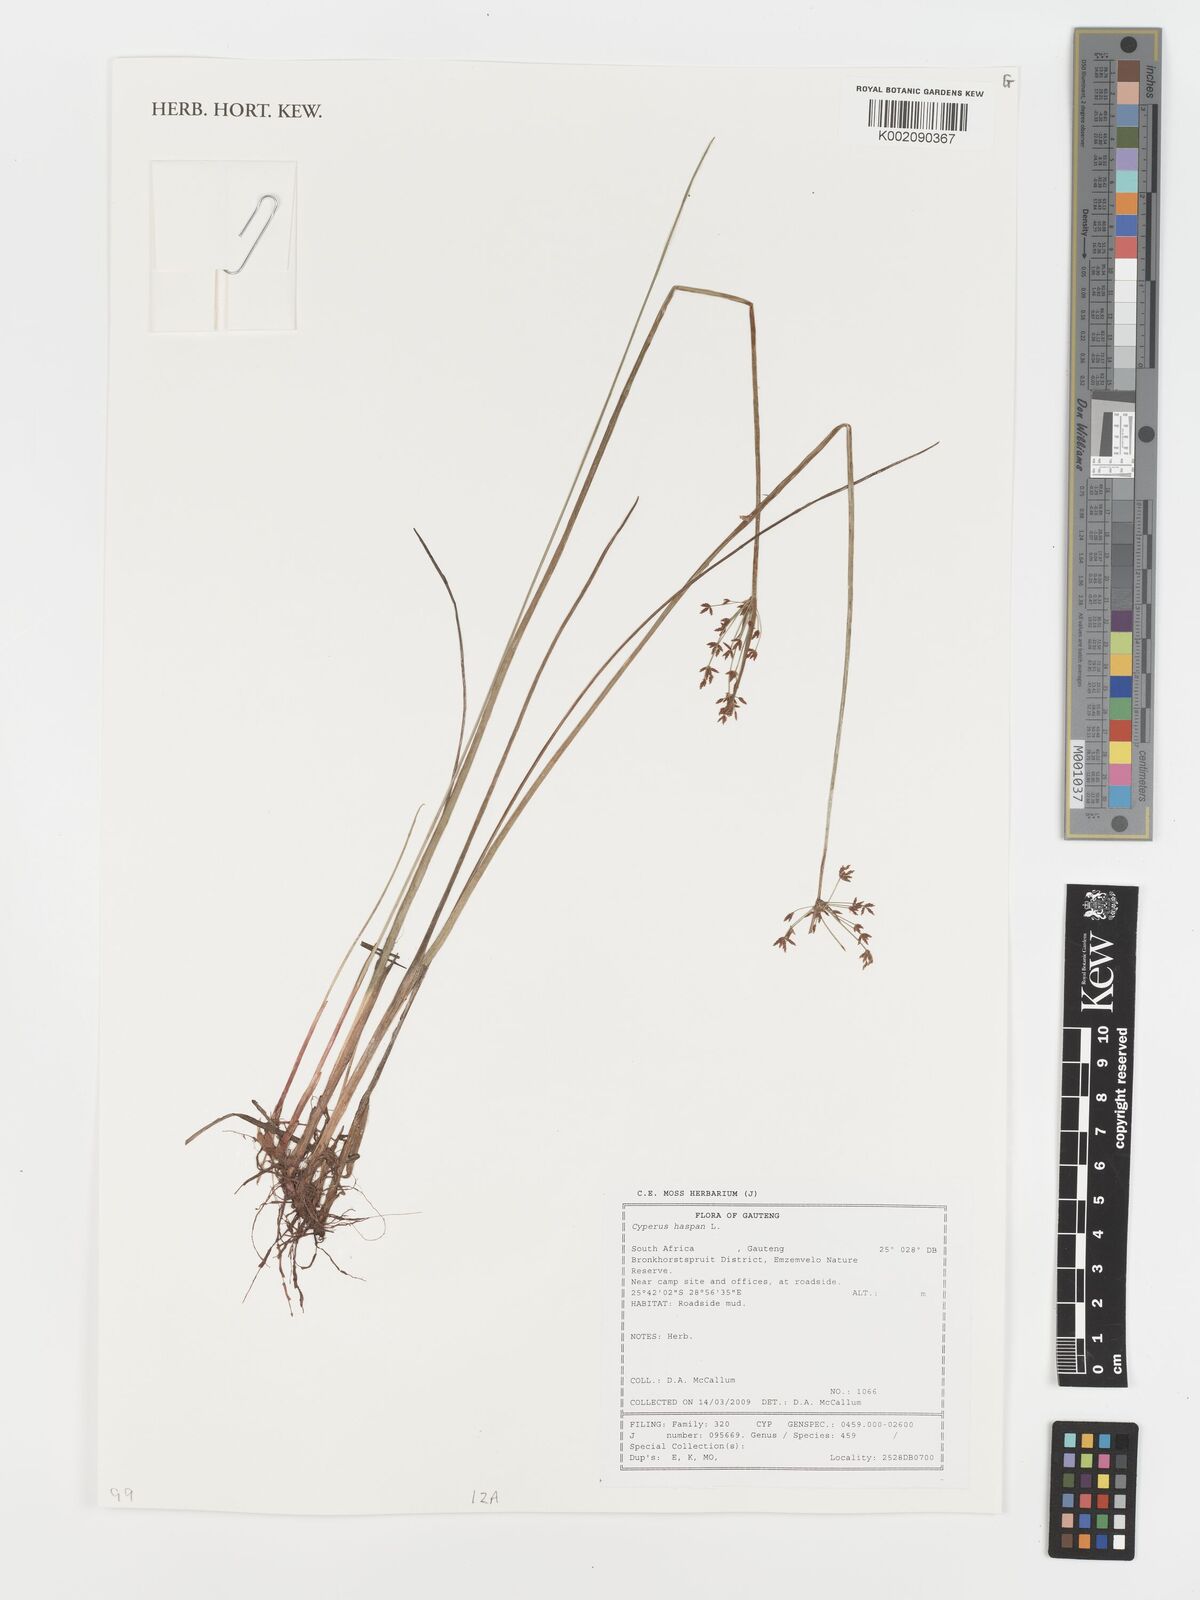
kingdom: Plantae
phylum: Tracheophyta
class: Liliopsida
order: Poales
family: Cyperaceae
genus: Cyperus
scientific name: Cyperus haspan
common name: Haspan flatsedge
